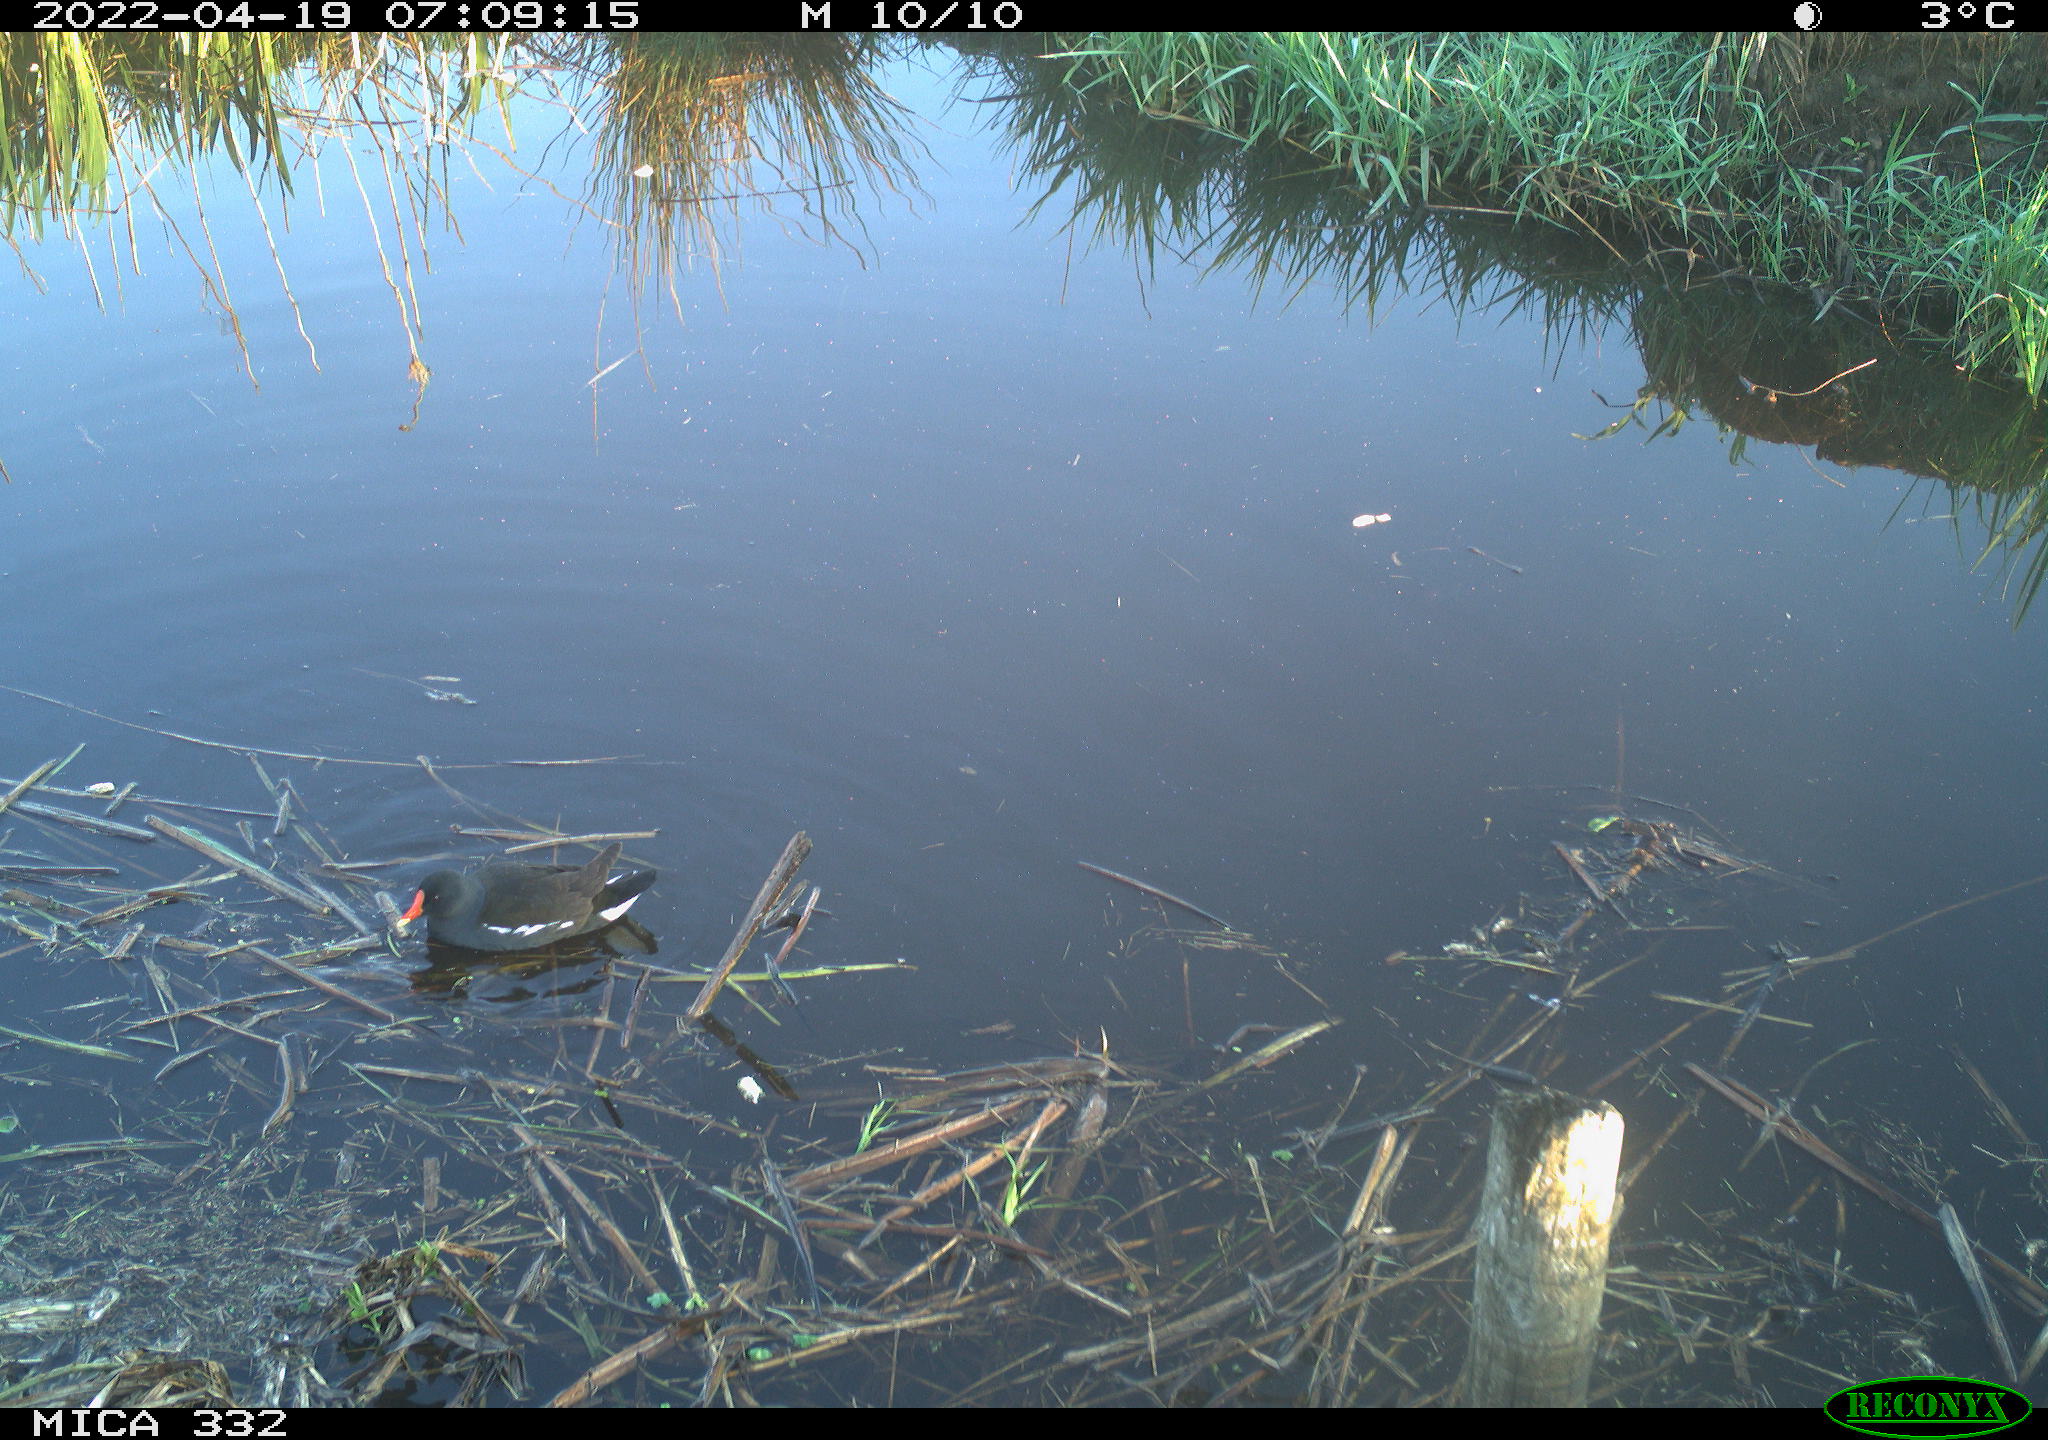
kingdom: Animalia
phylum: Chordata
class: Aves
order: Gruiformes
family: Rallidae
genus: Gallinula
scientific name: Gallinula chloropus
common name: Common moorhen
